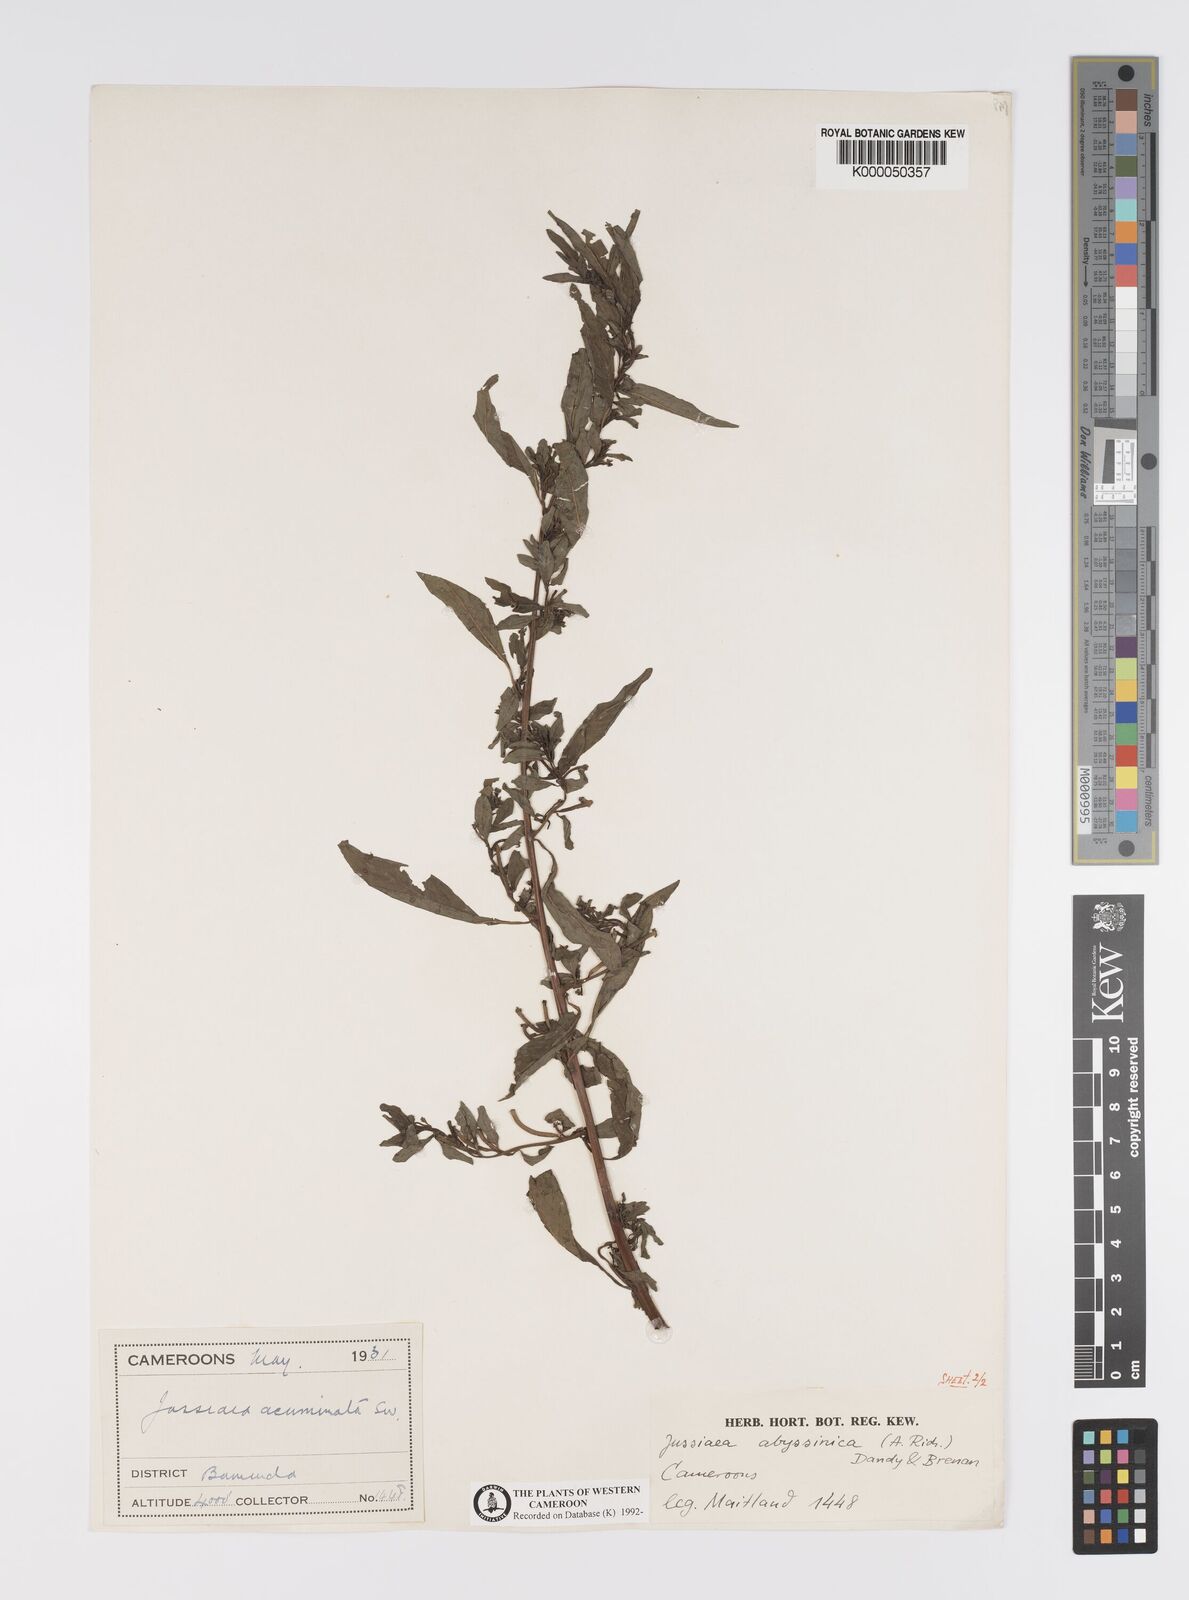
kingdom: Plantae
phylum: Tracheophyta
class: Magnoliopsida
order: Myrtales
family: Onagraceae
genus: Ludwigia
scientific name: Ludwigia abyssinica
